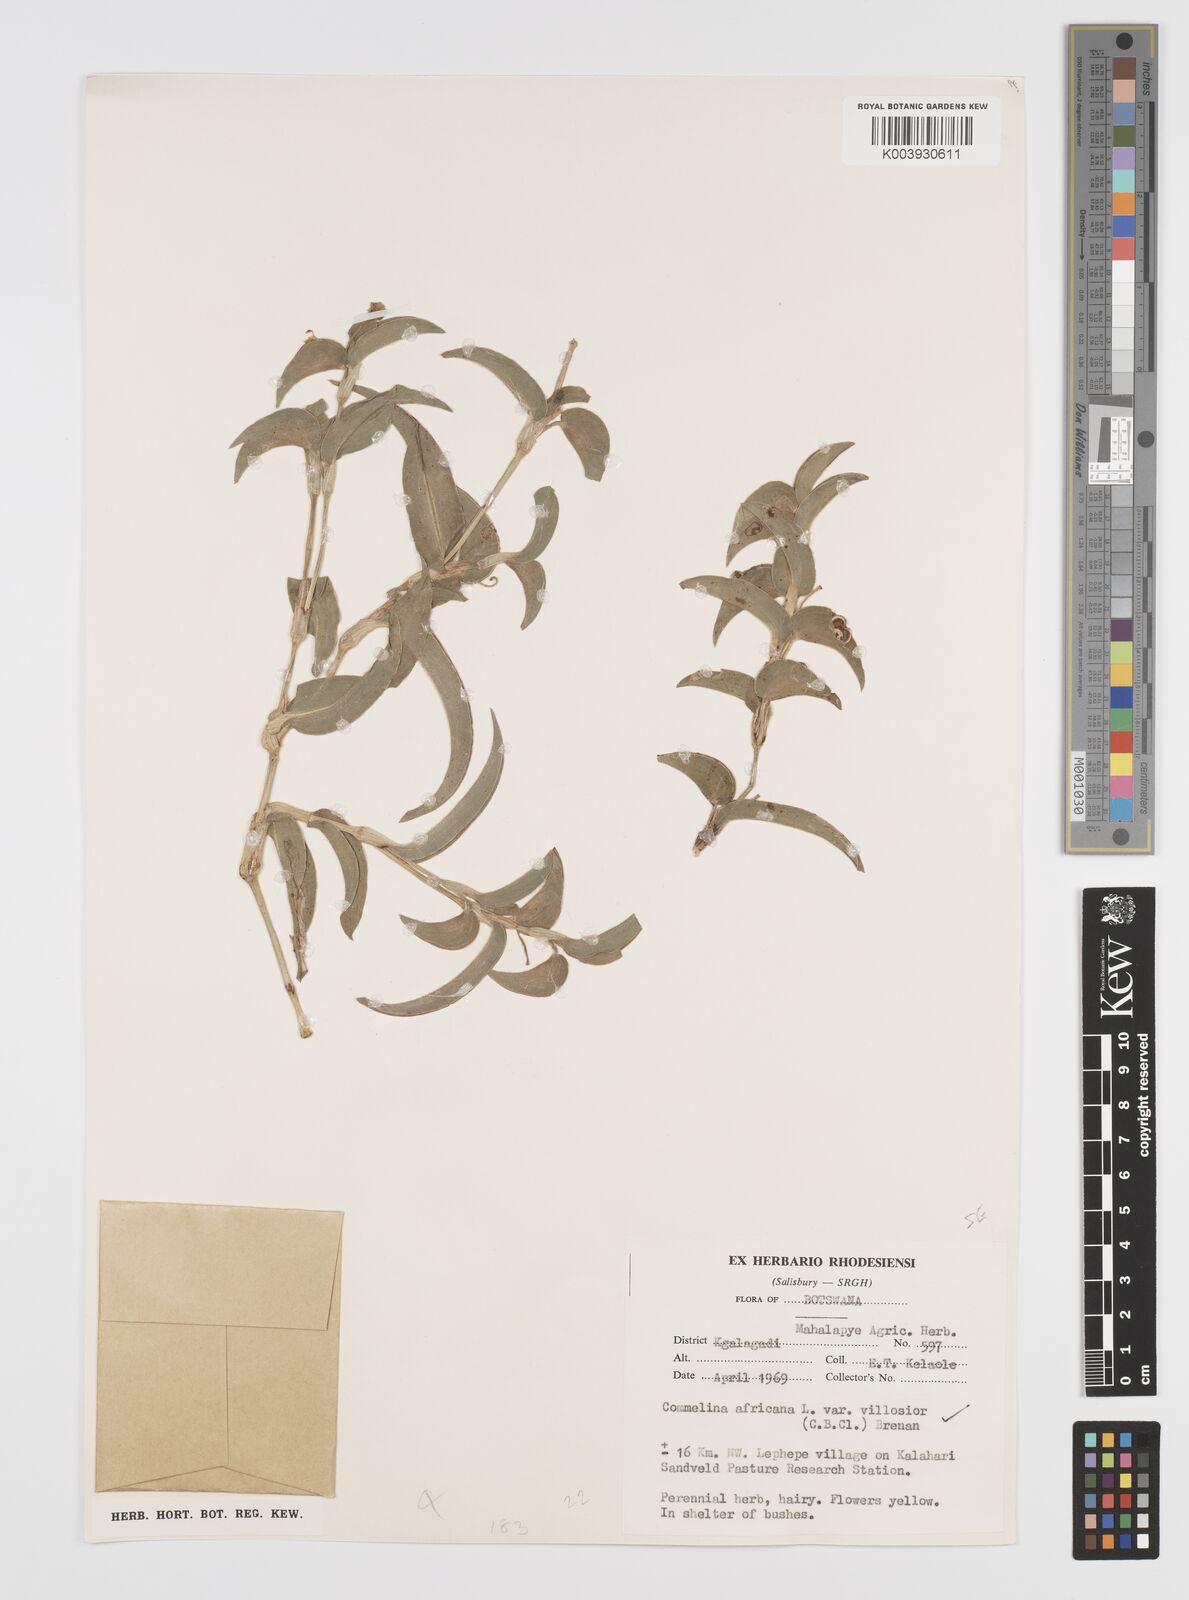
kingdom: Plantae
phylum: Tracheophyta
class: Liliopsida
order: Commelinales
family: Commelinaceae
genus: Commelina
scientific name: Commelina africana
